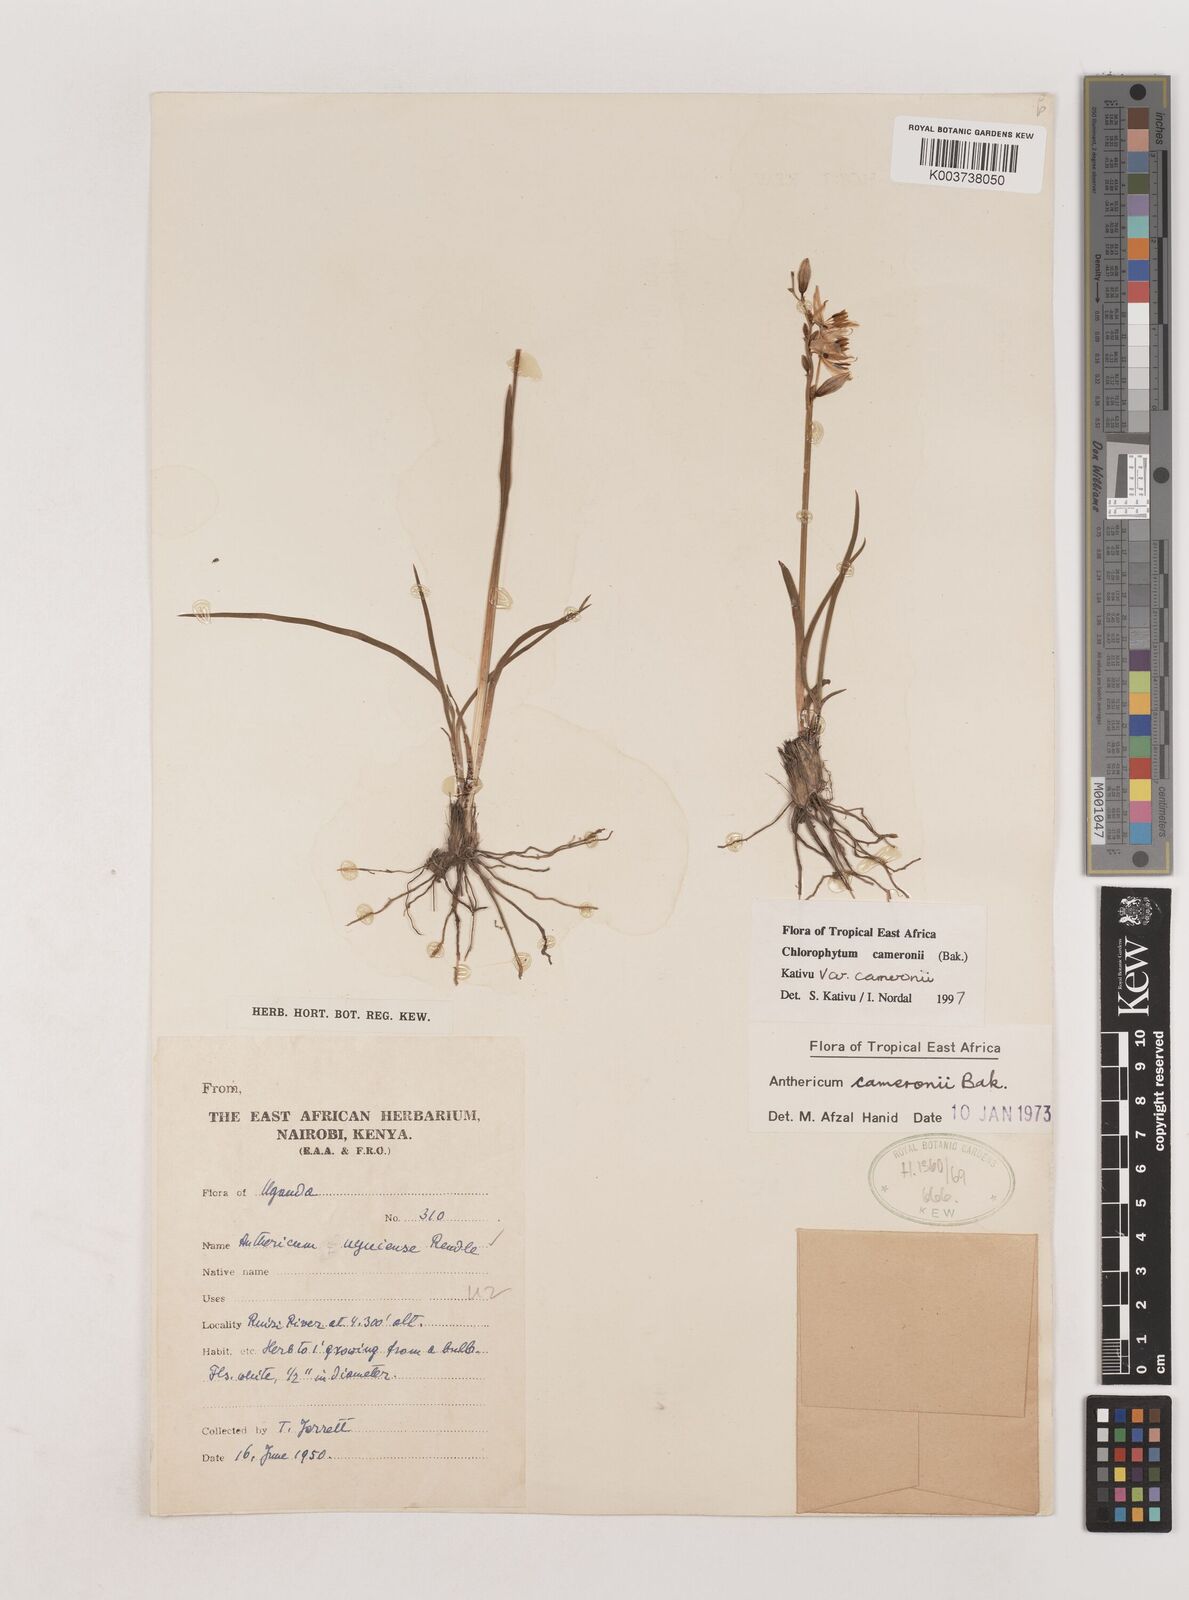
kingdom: Plantae
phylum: Tracheophyta
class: Liliopsida
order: Asparagales
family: Asparagaceae
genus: Chlorophytum
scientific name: Chlorophytum cameronii
